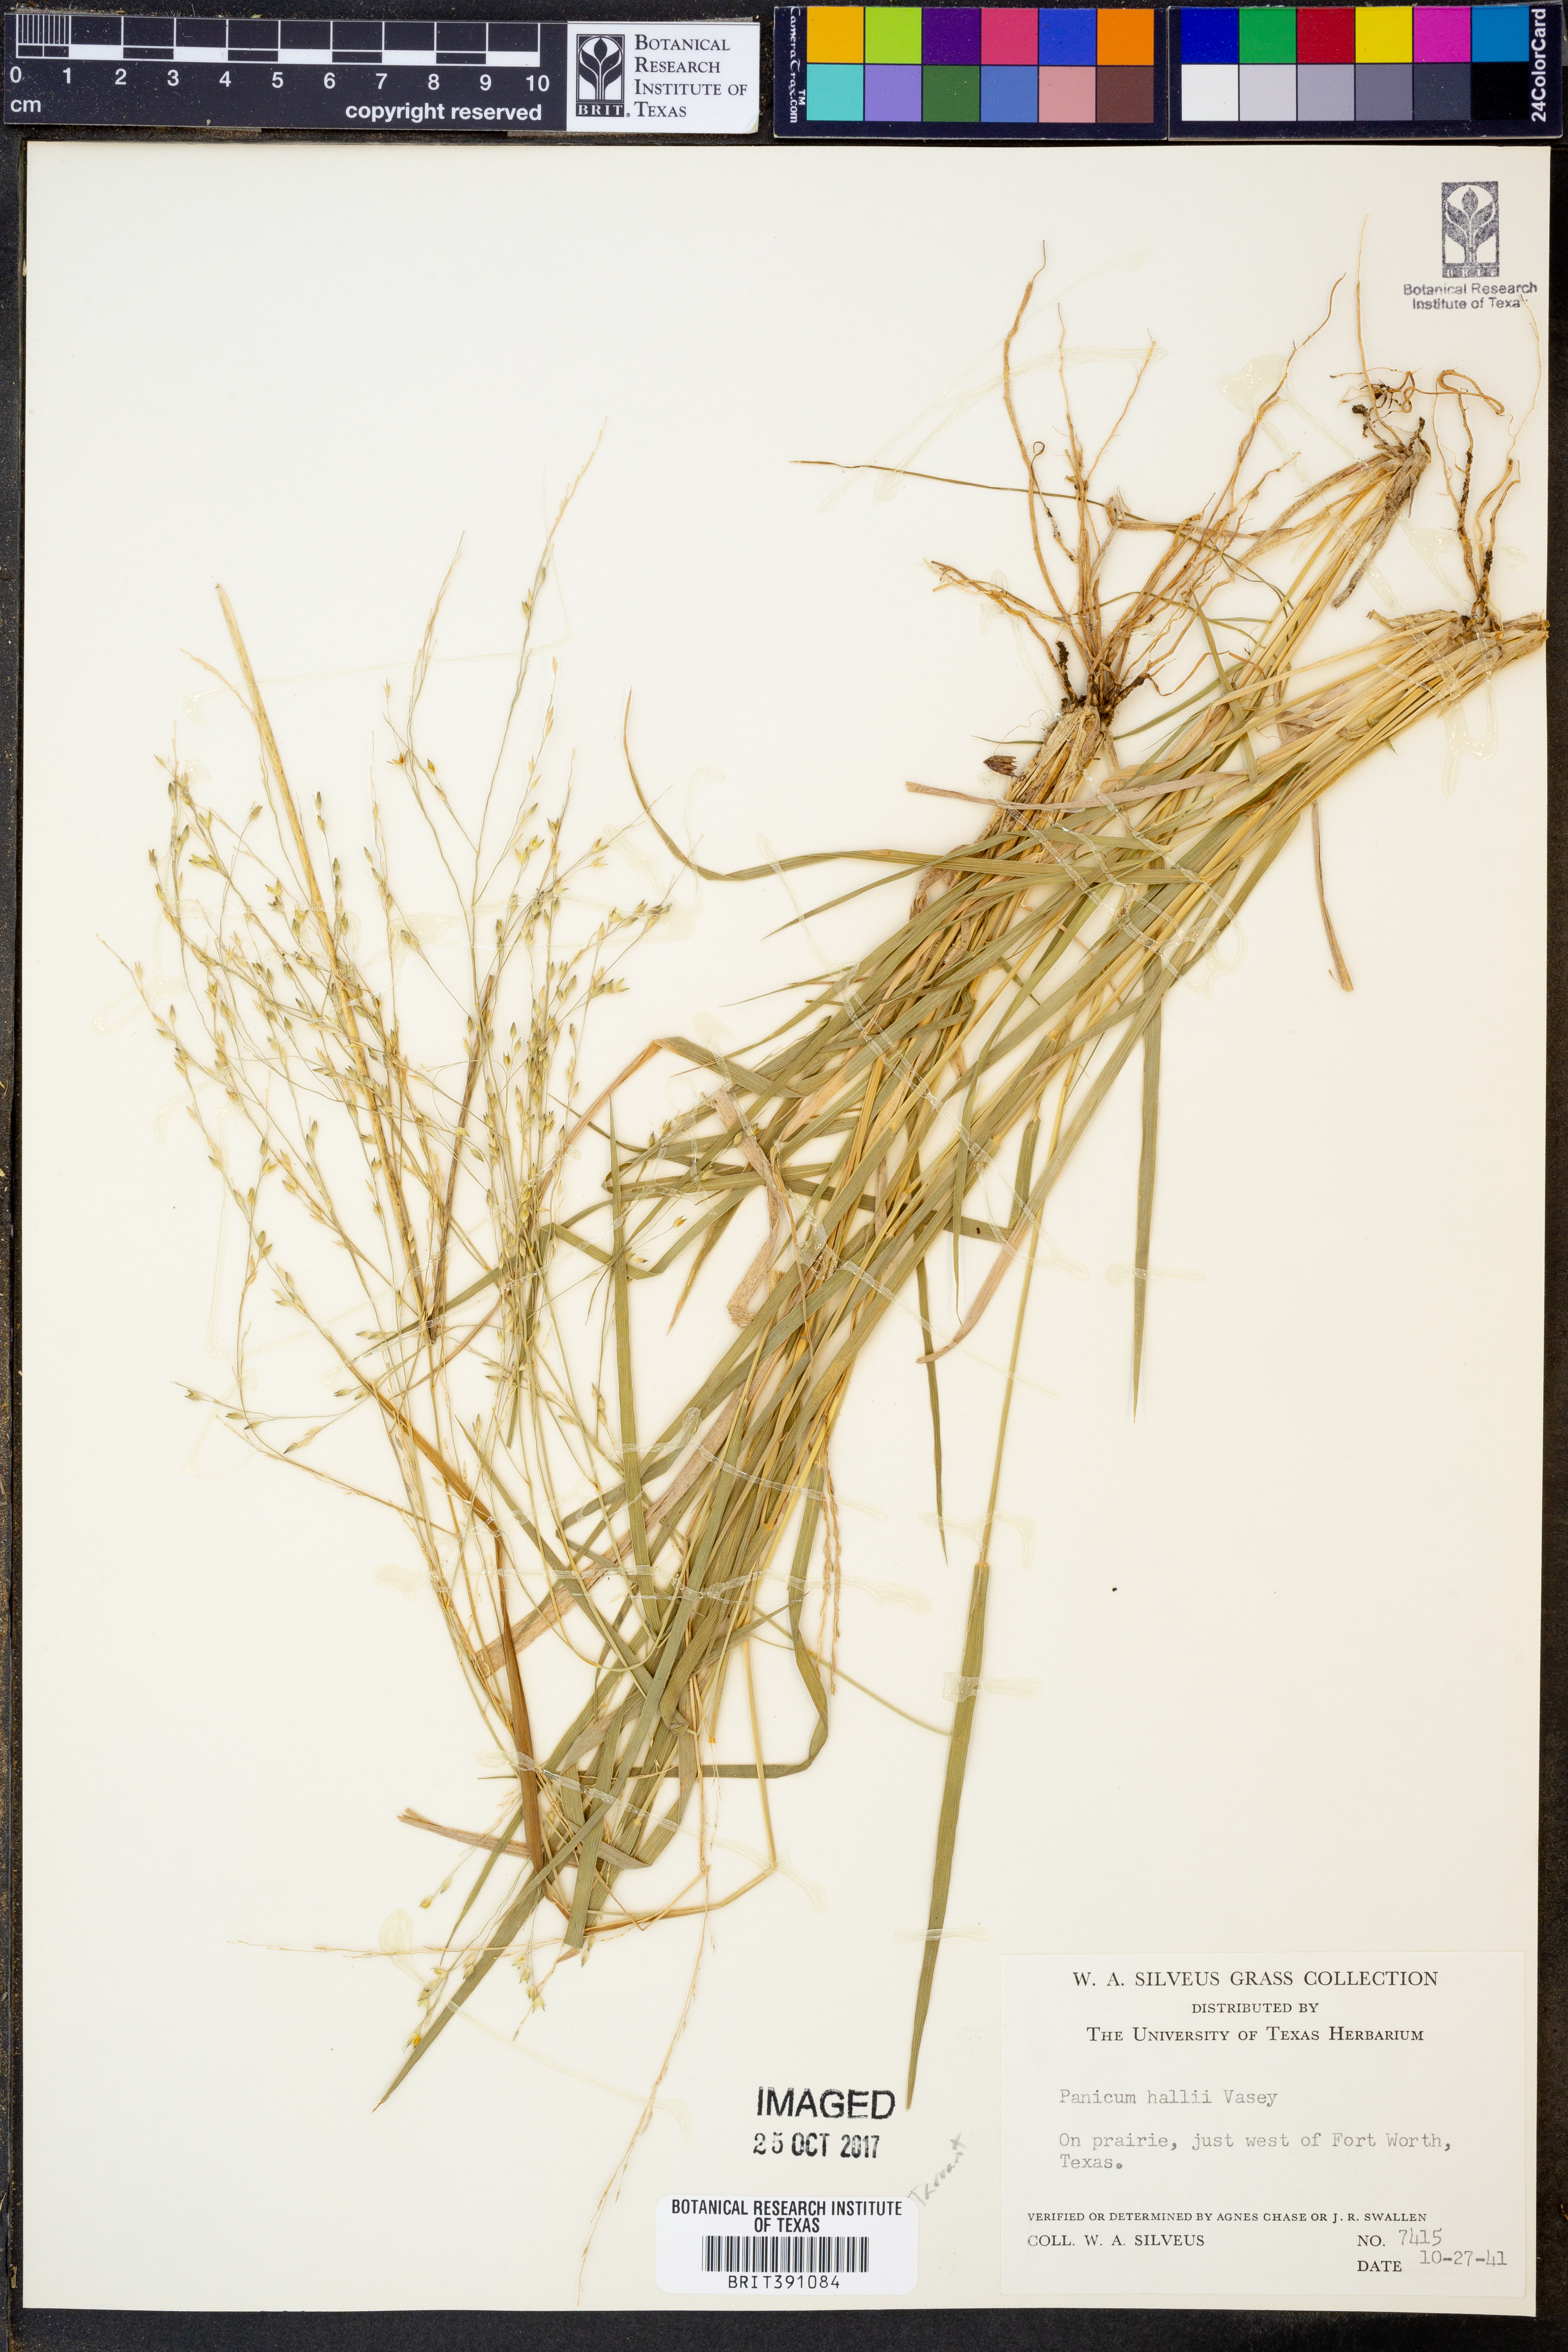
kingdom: Plantae
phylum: Tracheophyta
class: Liliopsida
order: Poales
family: Poaceae
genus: Panicum
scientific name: Panicum hallii
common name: Hall's witchgrass
